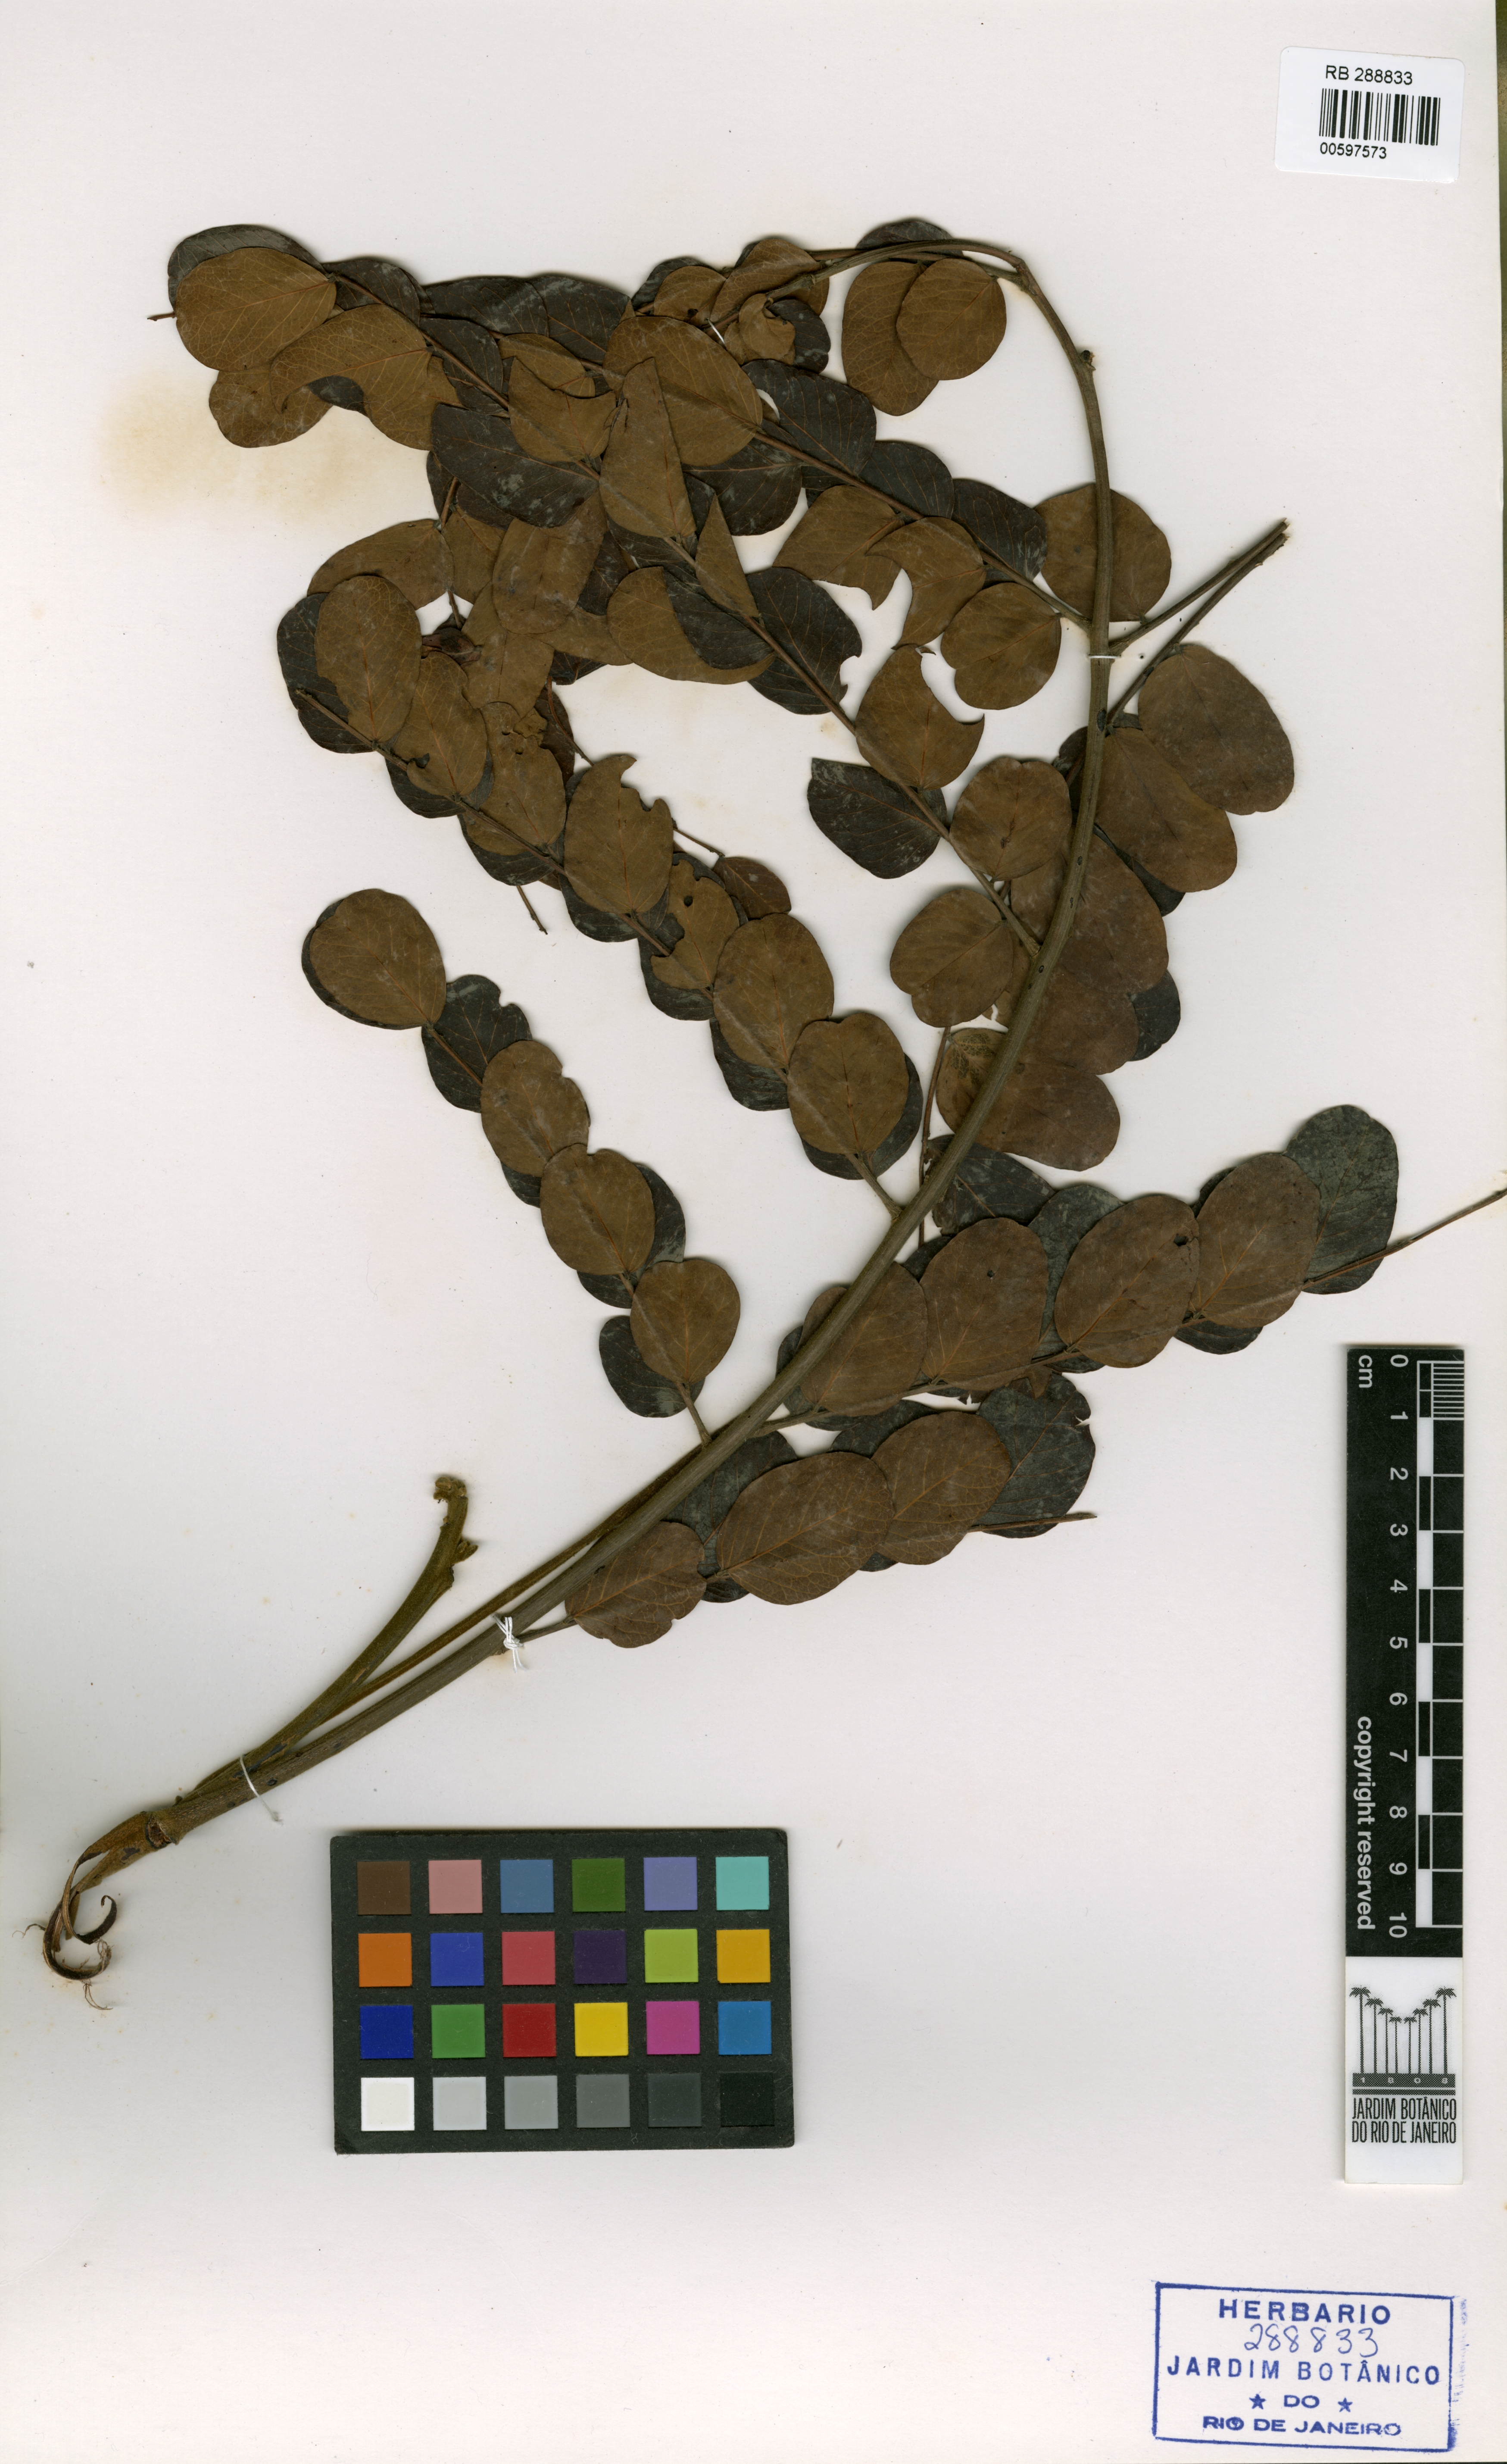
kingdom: Plantae
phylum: Tracheophyta
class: Magnoliopsida
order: Fabales
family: Fabaceae
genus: Stryphnodendron
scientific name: Stryphnodendron barbatulum
